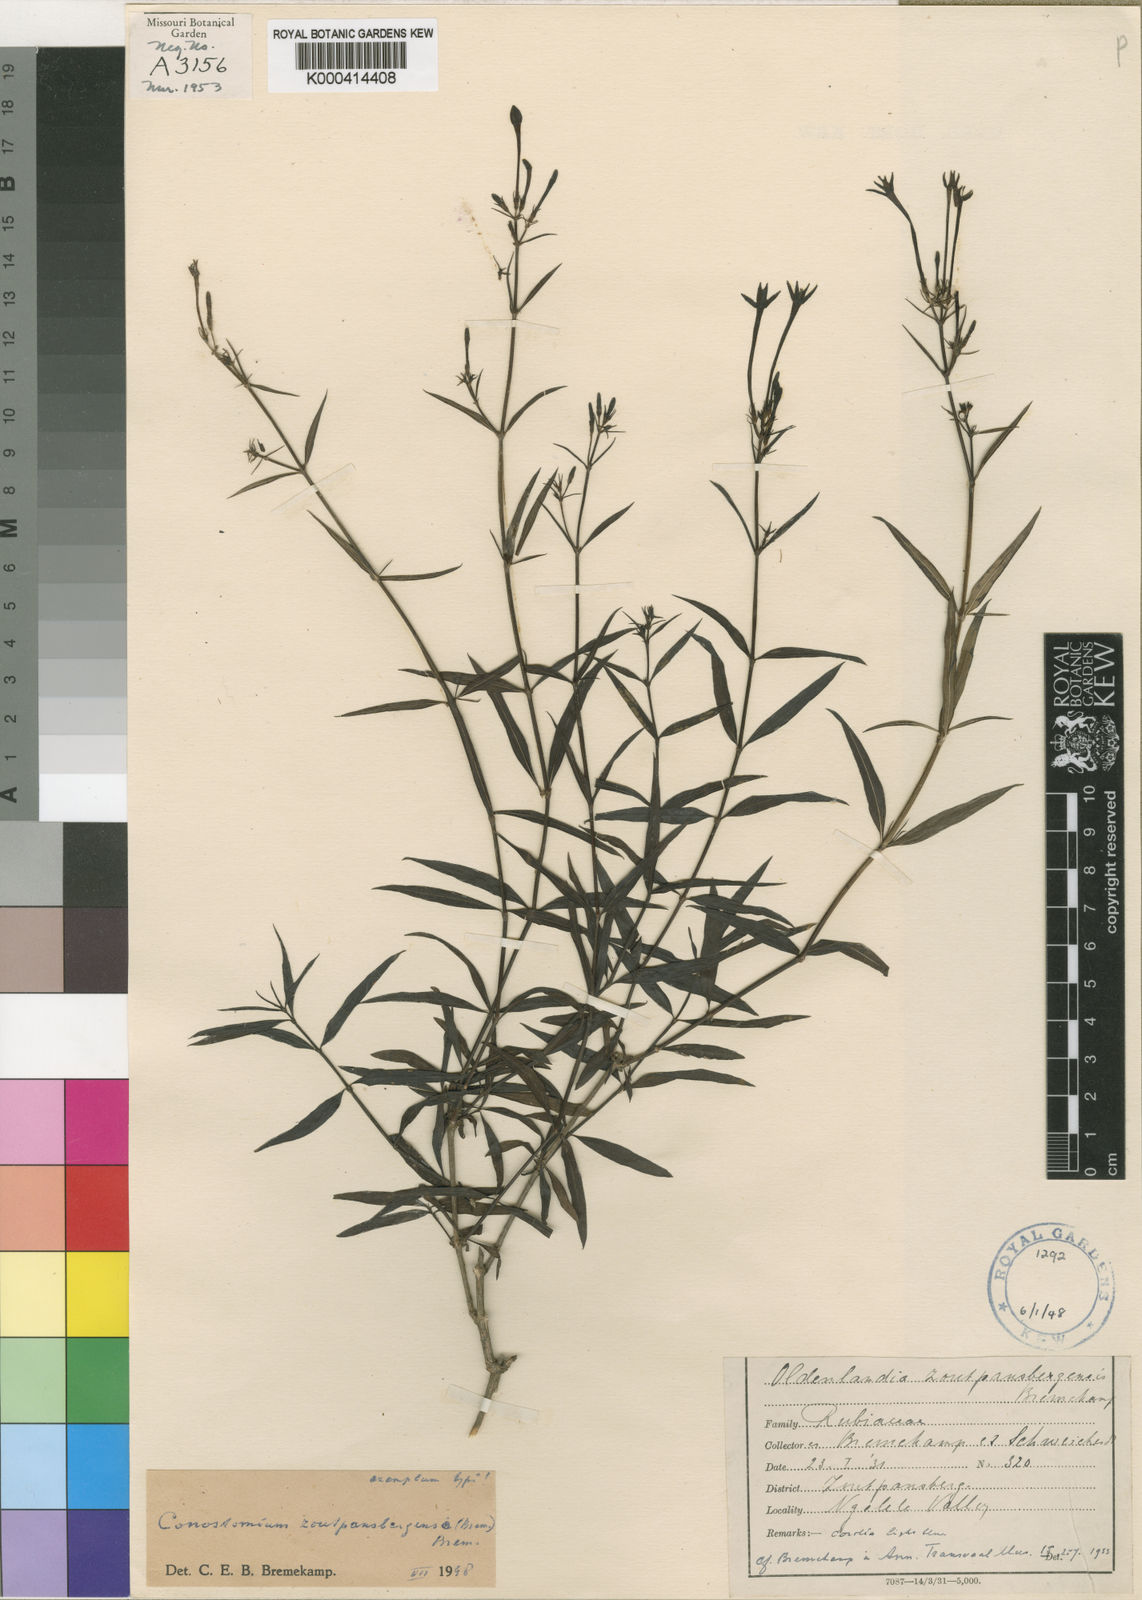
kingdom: Plantae
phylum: Tracheophyta
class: Magnoliopsida
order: Gentianales
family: Rubiaceae
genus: Conostomium
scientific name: Conostomium zoutpansbergense
